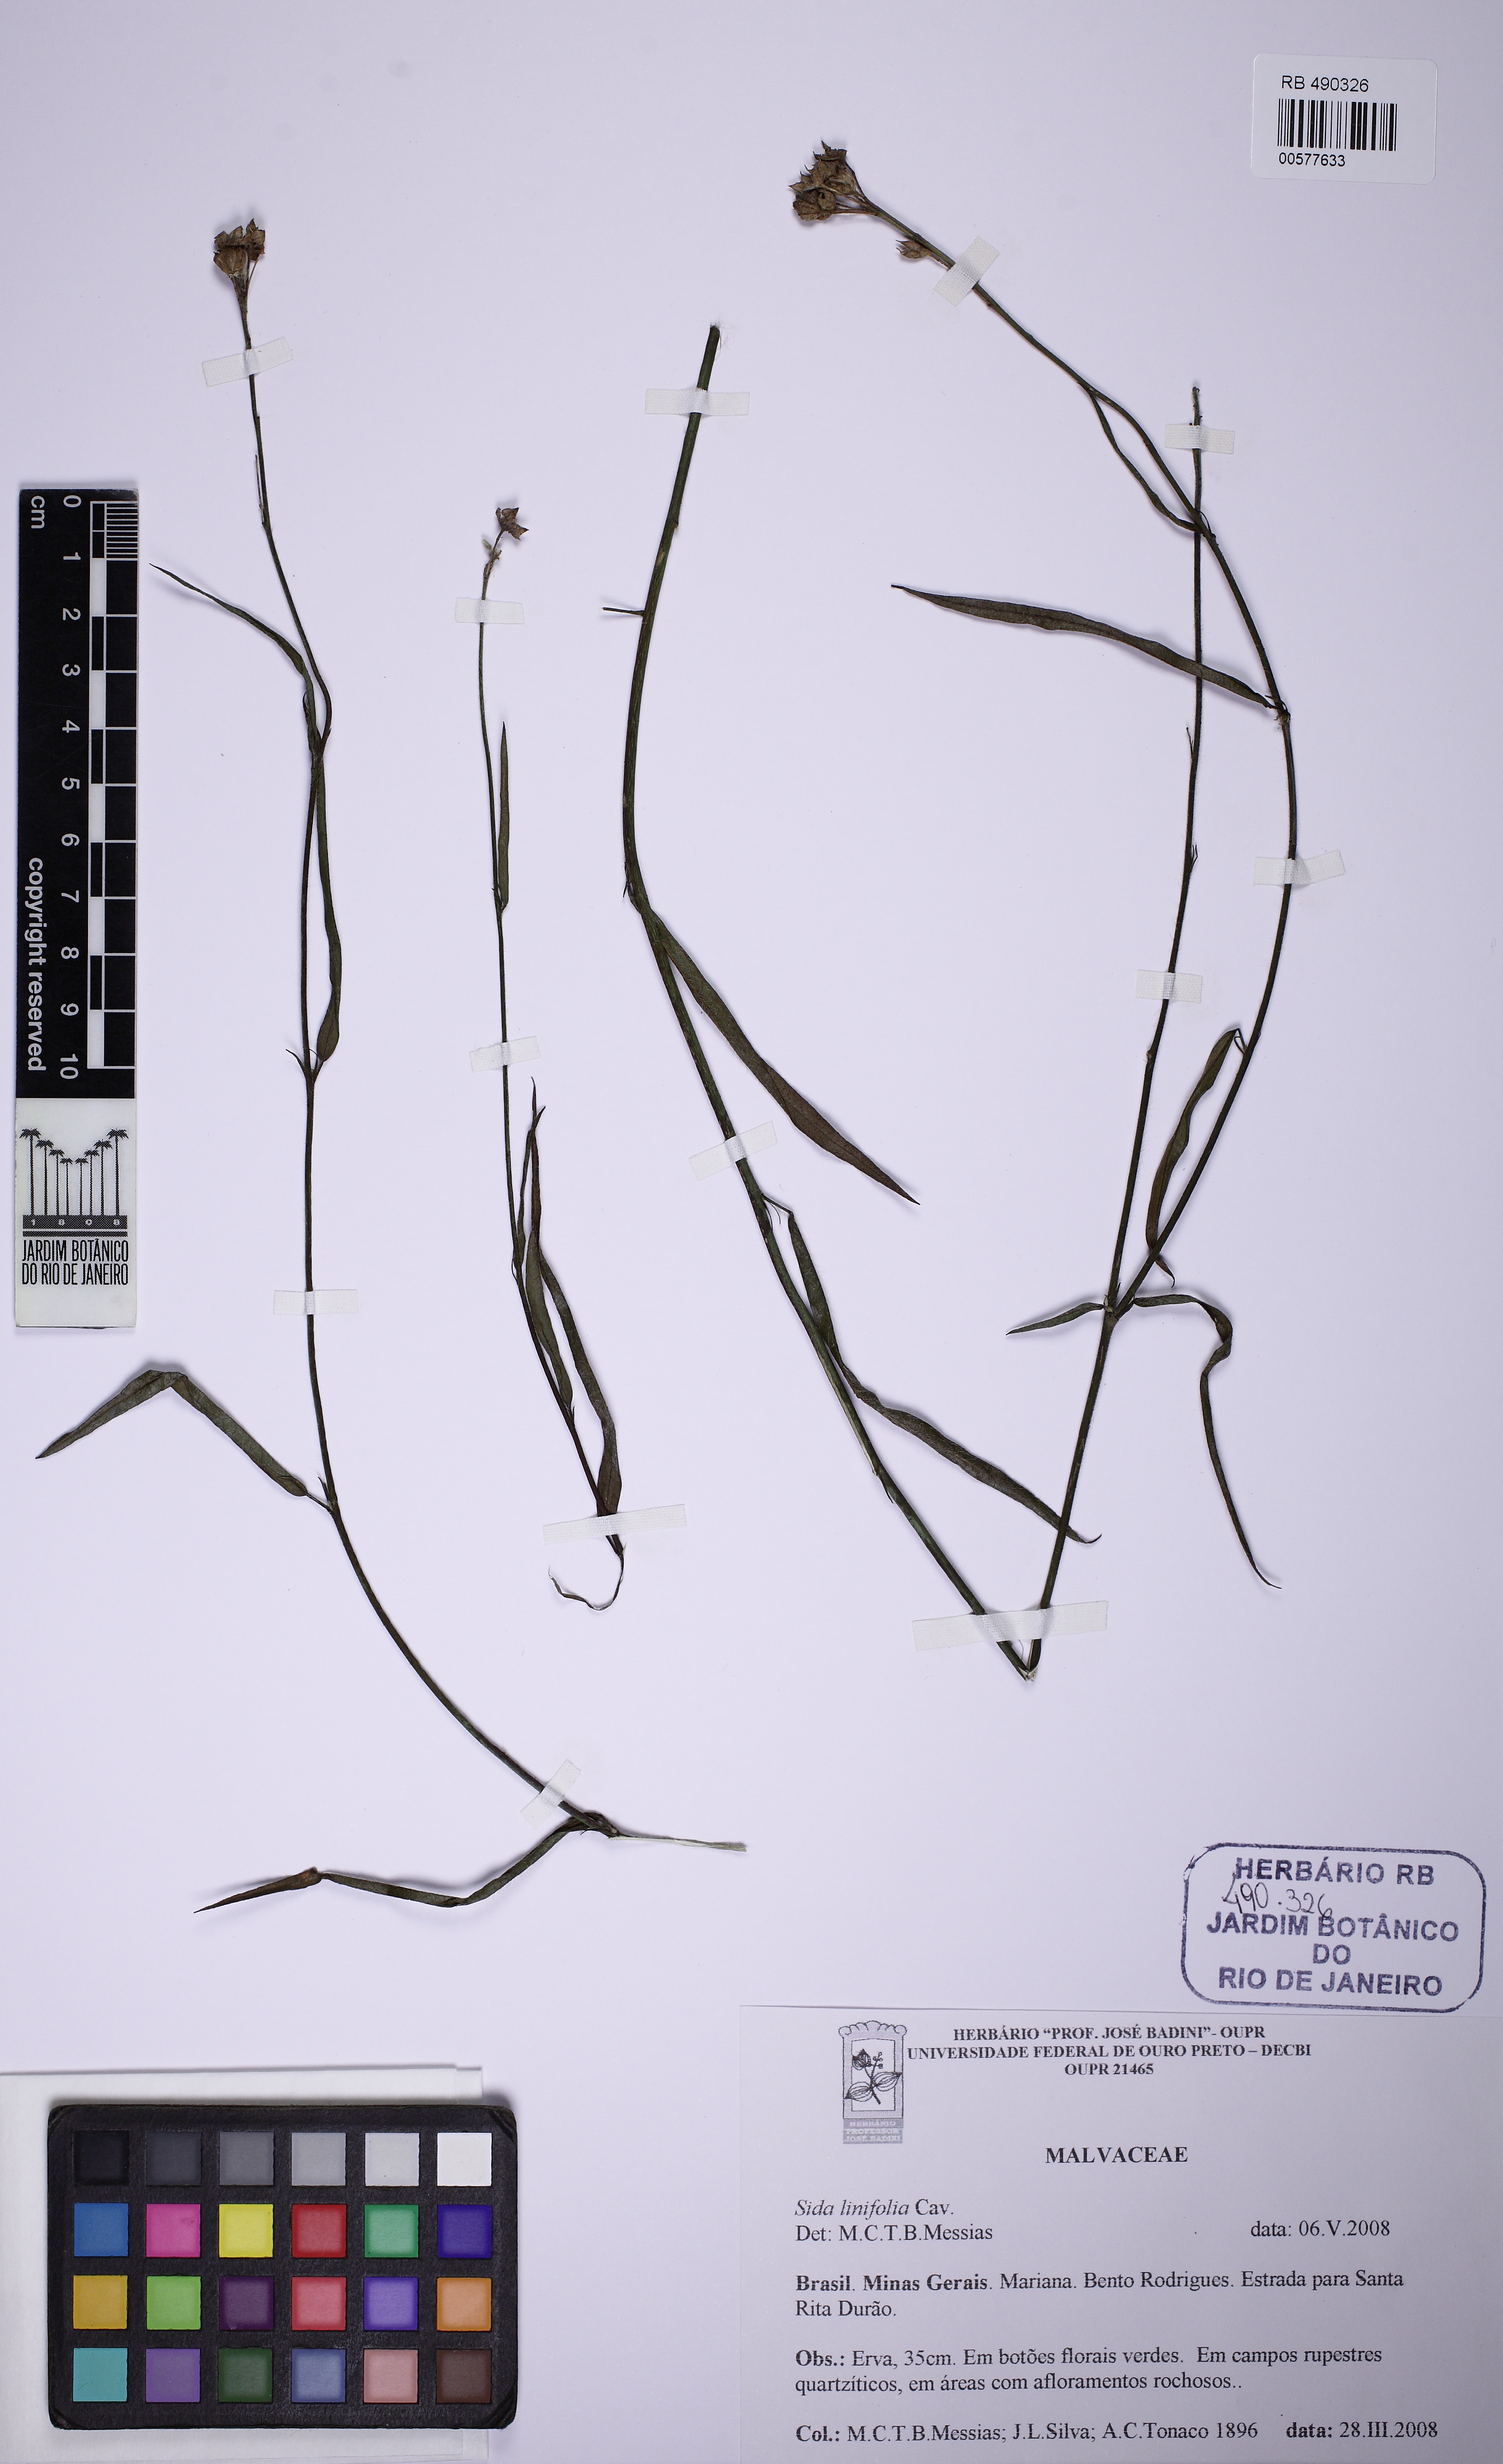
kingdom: Plantae
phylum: Tracheophyta
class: Magnoliopsida
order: Malvales
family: Malvaceae
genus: Sida
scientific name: Sida linifolia
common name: Flaxleaf fanpetals
